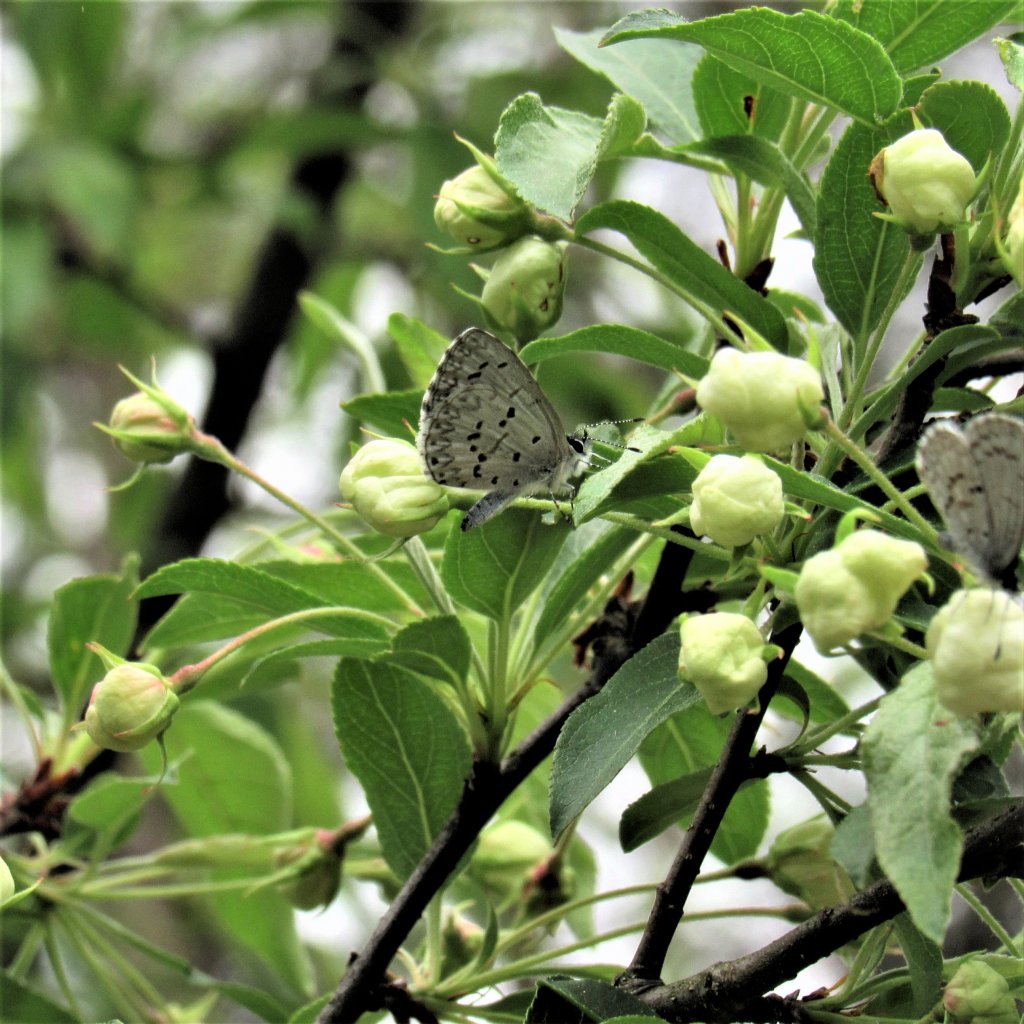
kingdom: Animalia
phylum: Arthropoda
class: Insecta
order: Lepidoptera
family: Lycaenidae
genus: Celastrina
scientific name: Celastrina ladon
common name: Spring Azure
